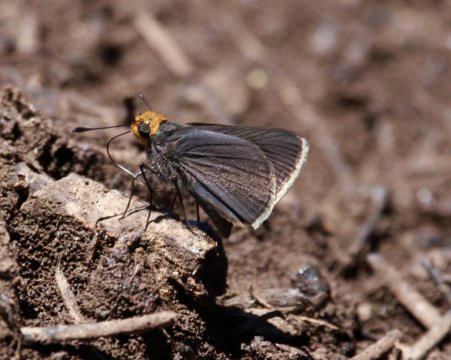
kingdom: Animalia
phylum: Arthropoda
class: Insecta
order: Lepidoptera
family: Hesperiidae
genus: Mastor
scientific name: Mastor phylace
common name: Orange-headed Roadside-Skipper
